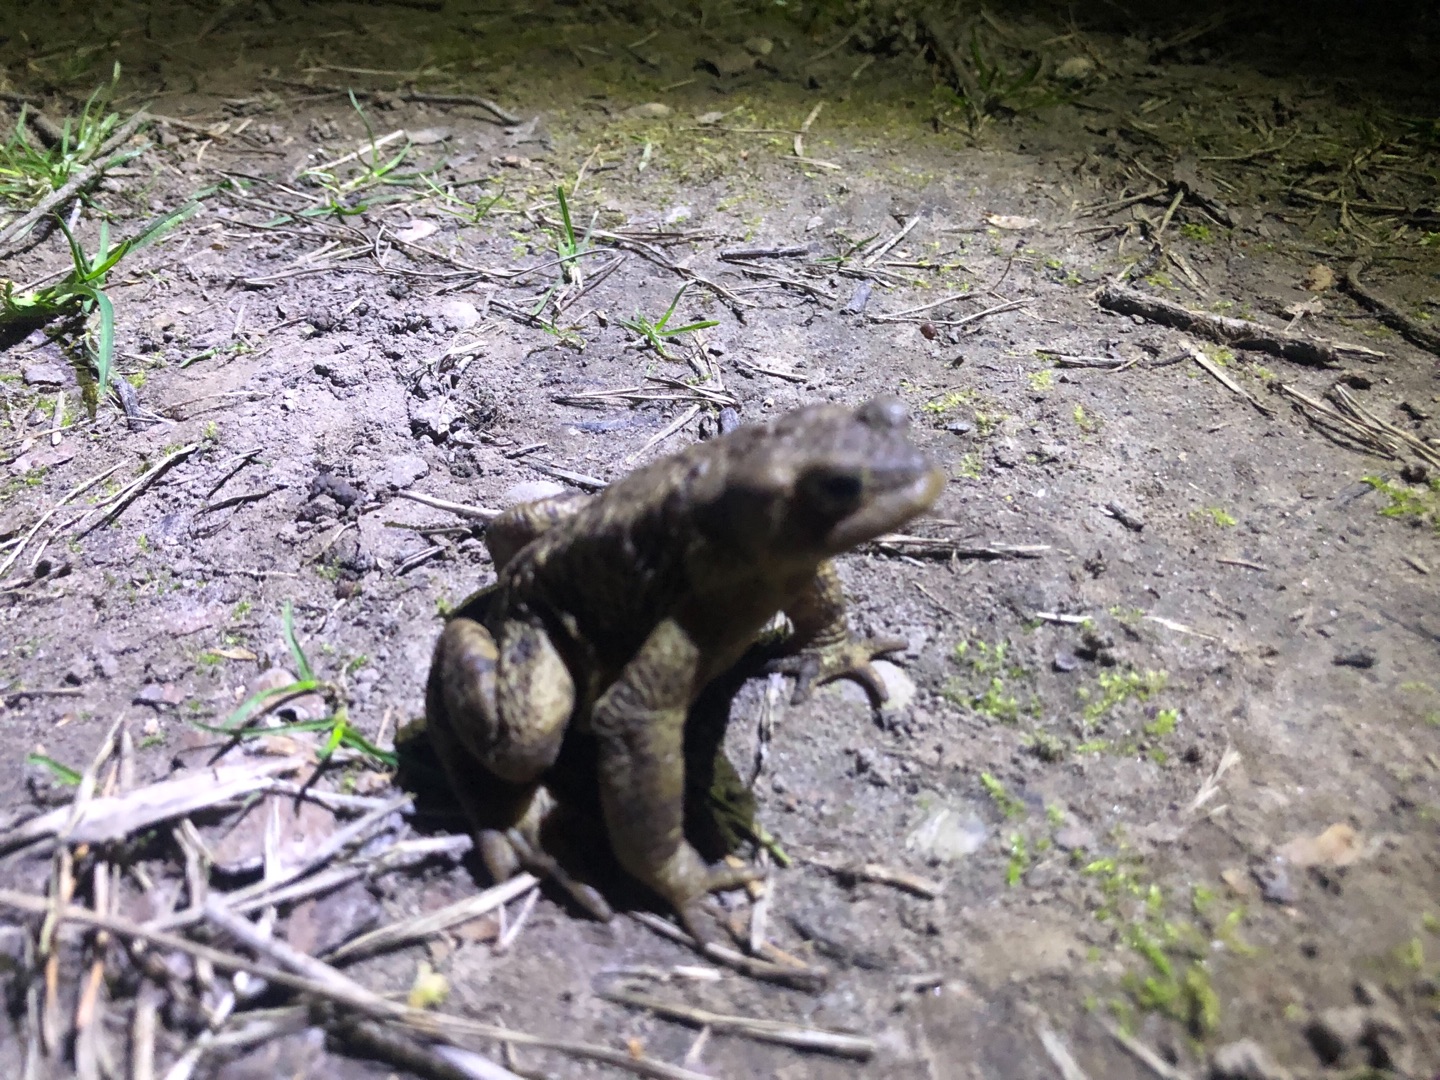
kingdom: Animalia
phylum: Chordata
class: Amphibia
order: Anura
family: Bufonidae
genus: Bufo
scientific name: Bufo bufo
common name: Skrubtudse
